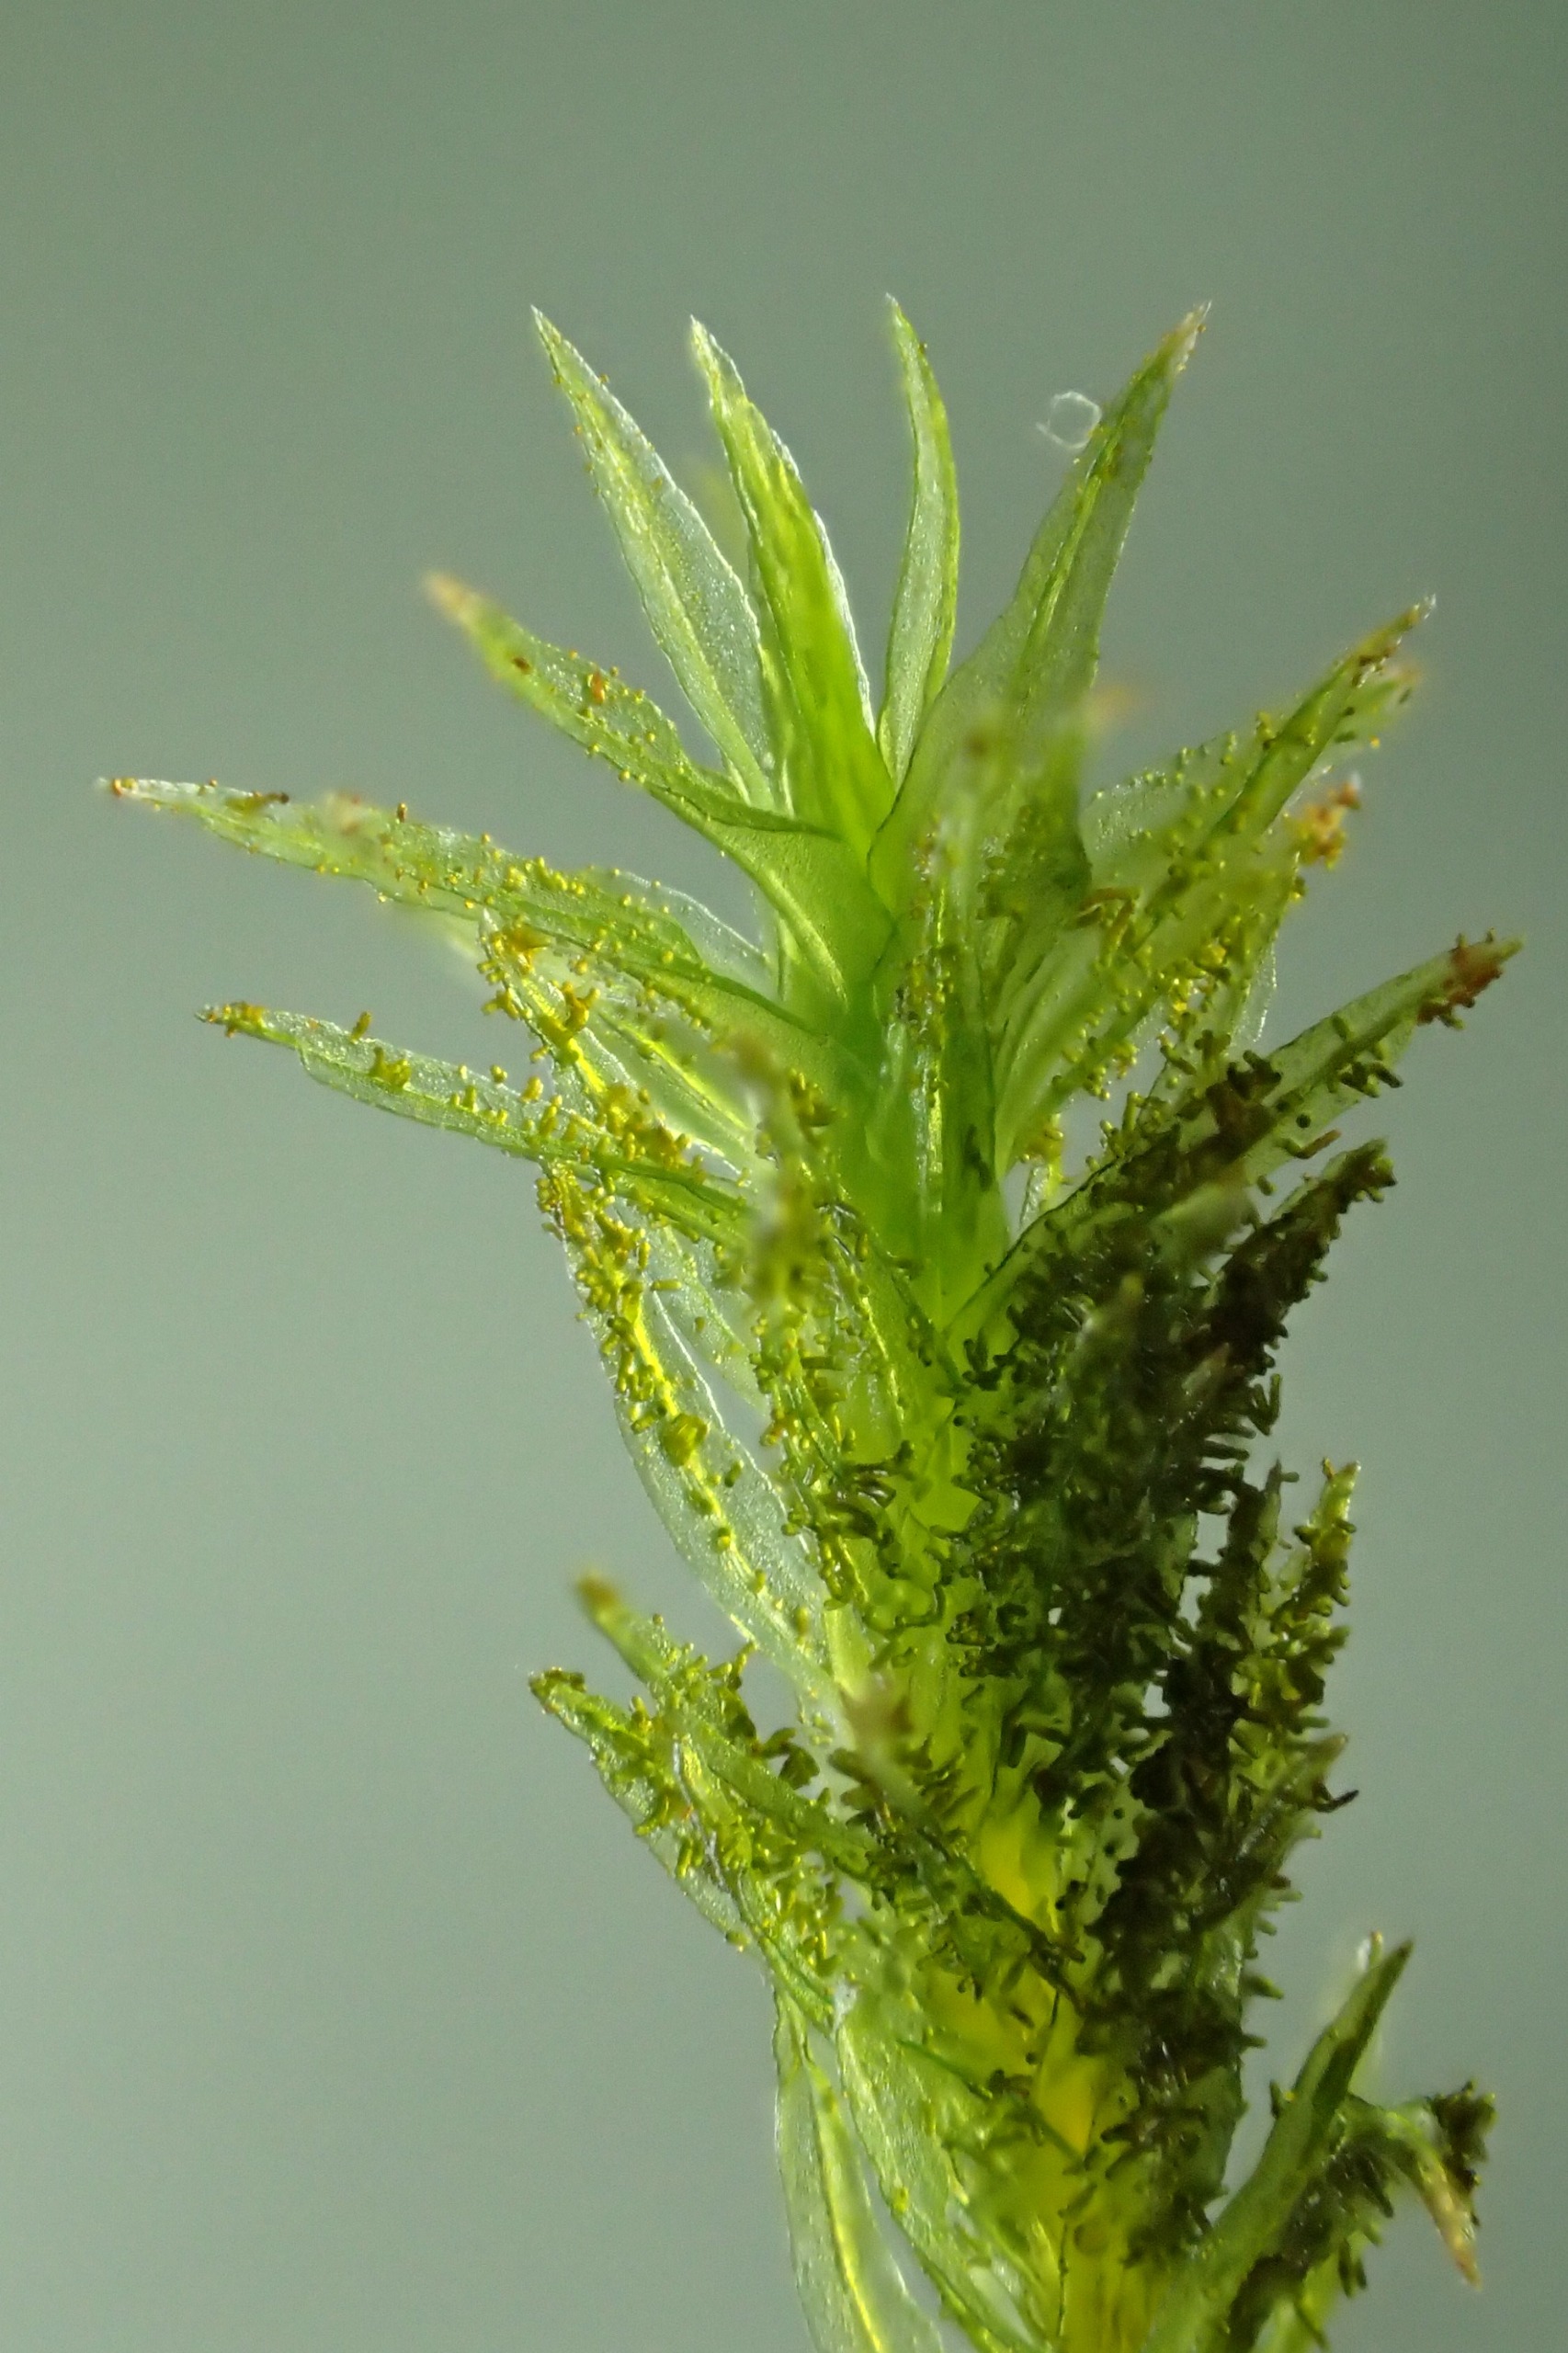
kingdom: Plantae
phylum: Bryophyta
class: Bryopsida
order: Orthotrichales
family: Orthotrichaceae
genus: Pulvigera
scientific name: Pulvigera lyellii
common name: Stor furehætte
